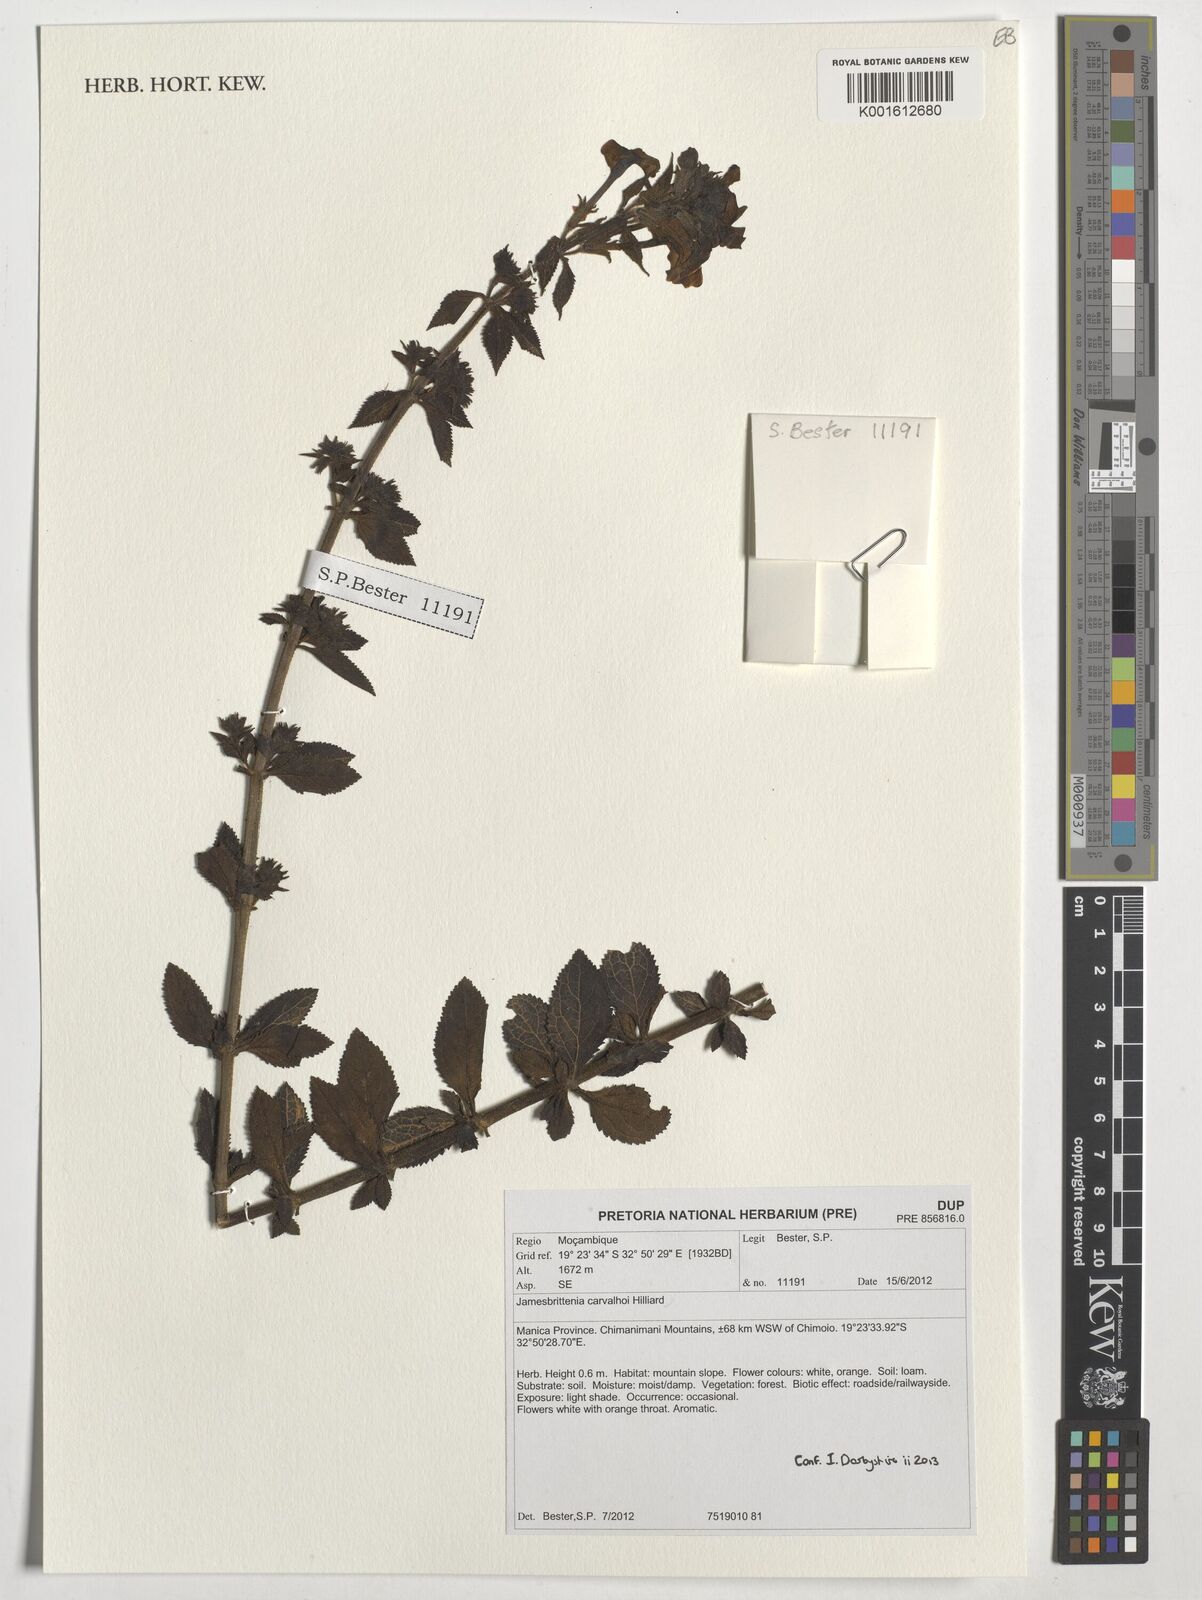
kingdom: Plantae
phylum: Tracheophyta
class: Magnoliopsida
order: Lamiales
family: Scrophulariaceae
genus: Jamesbrittenia
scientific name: Jamesbrittenia carvalhoi
